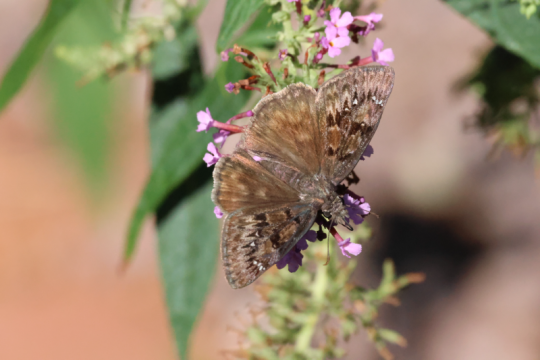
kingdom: Animalia
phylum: Arthropoda
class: Insecta
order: Lepidoptera
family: Hesperiidae
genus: Erynnis
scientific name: Erynnis tristis
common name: Mournful Duskywing
